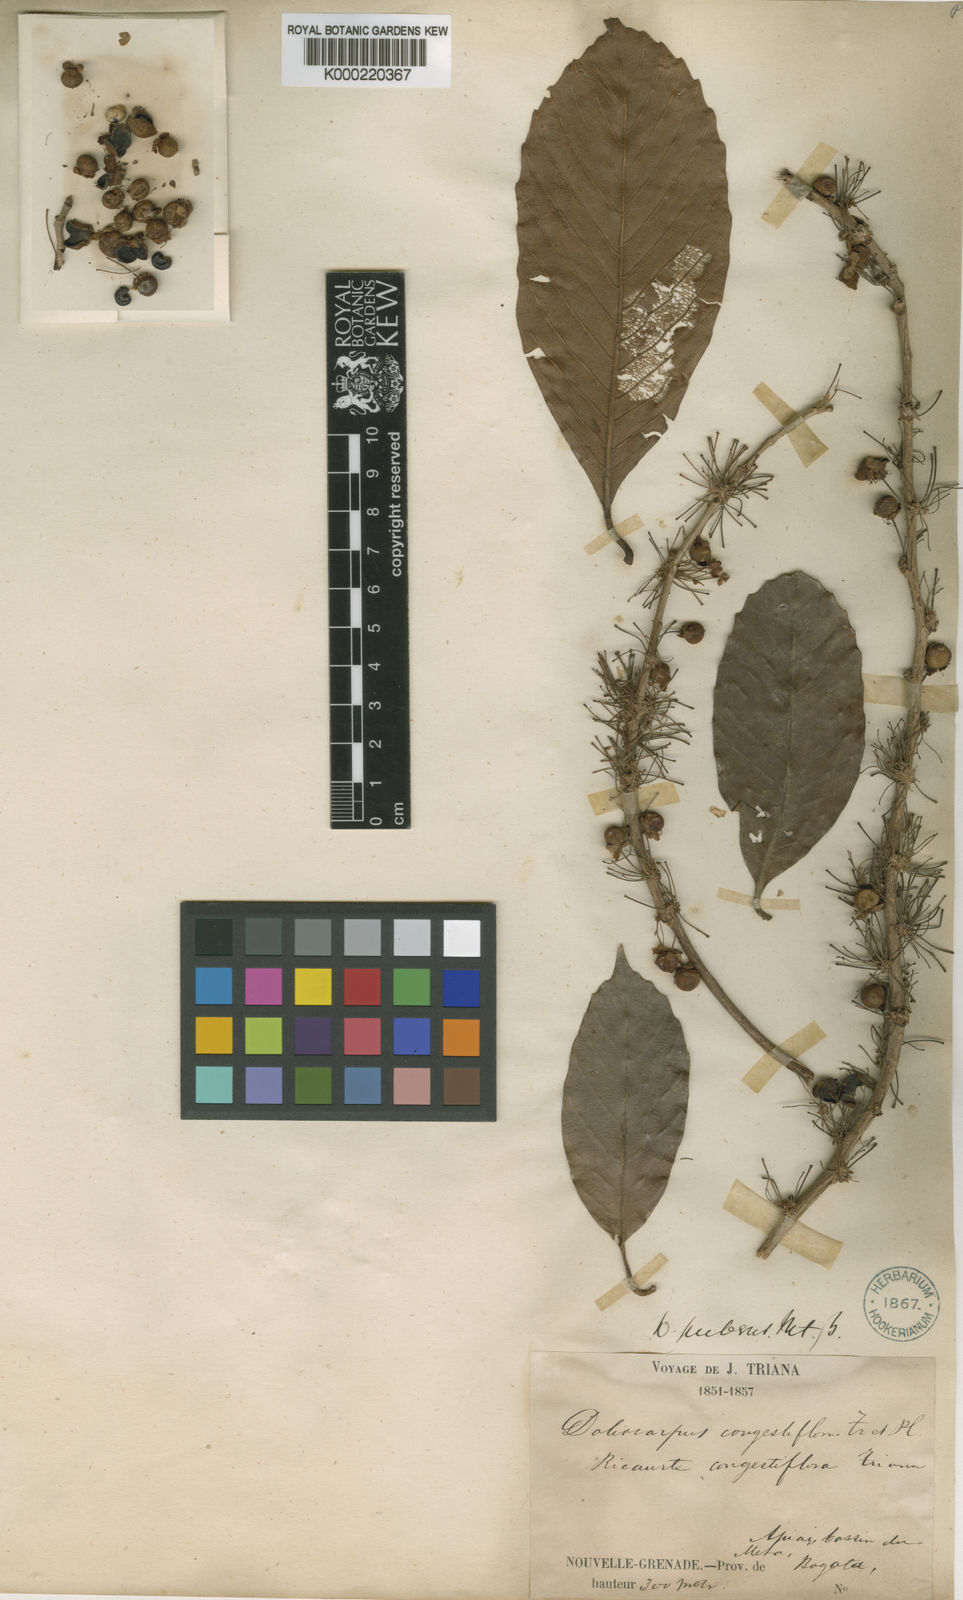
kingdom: Plantae
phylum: Tracheophyta
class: Magnoliopsida
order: Dilleniales
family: Dilleniaceae
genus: Doliocarpus
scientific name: Doliocarpus dentatus
